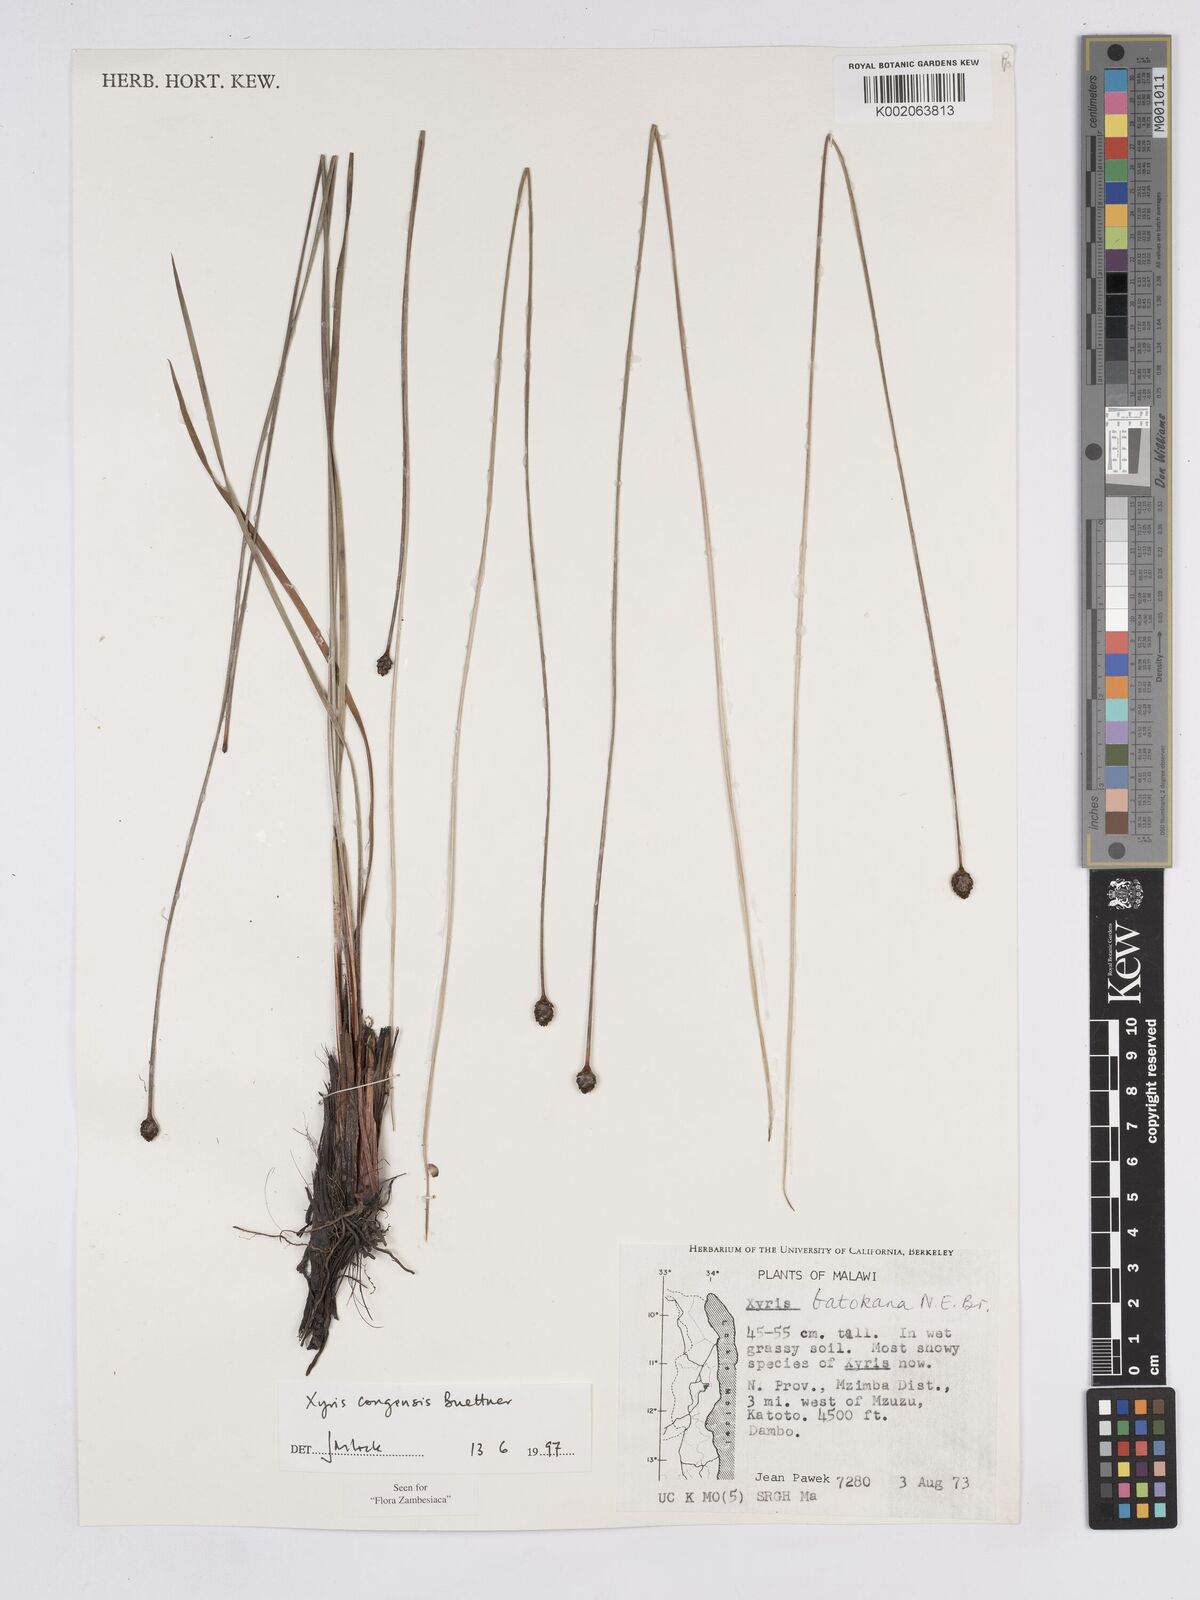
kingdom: Plantae
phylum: Tracheophyta
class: Liliopsida
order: Poales
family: Xyridaceae
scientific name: Xyridaceae
